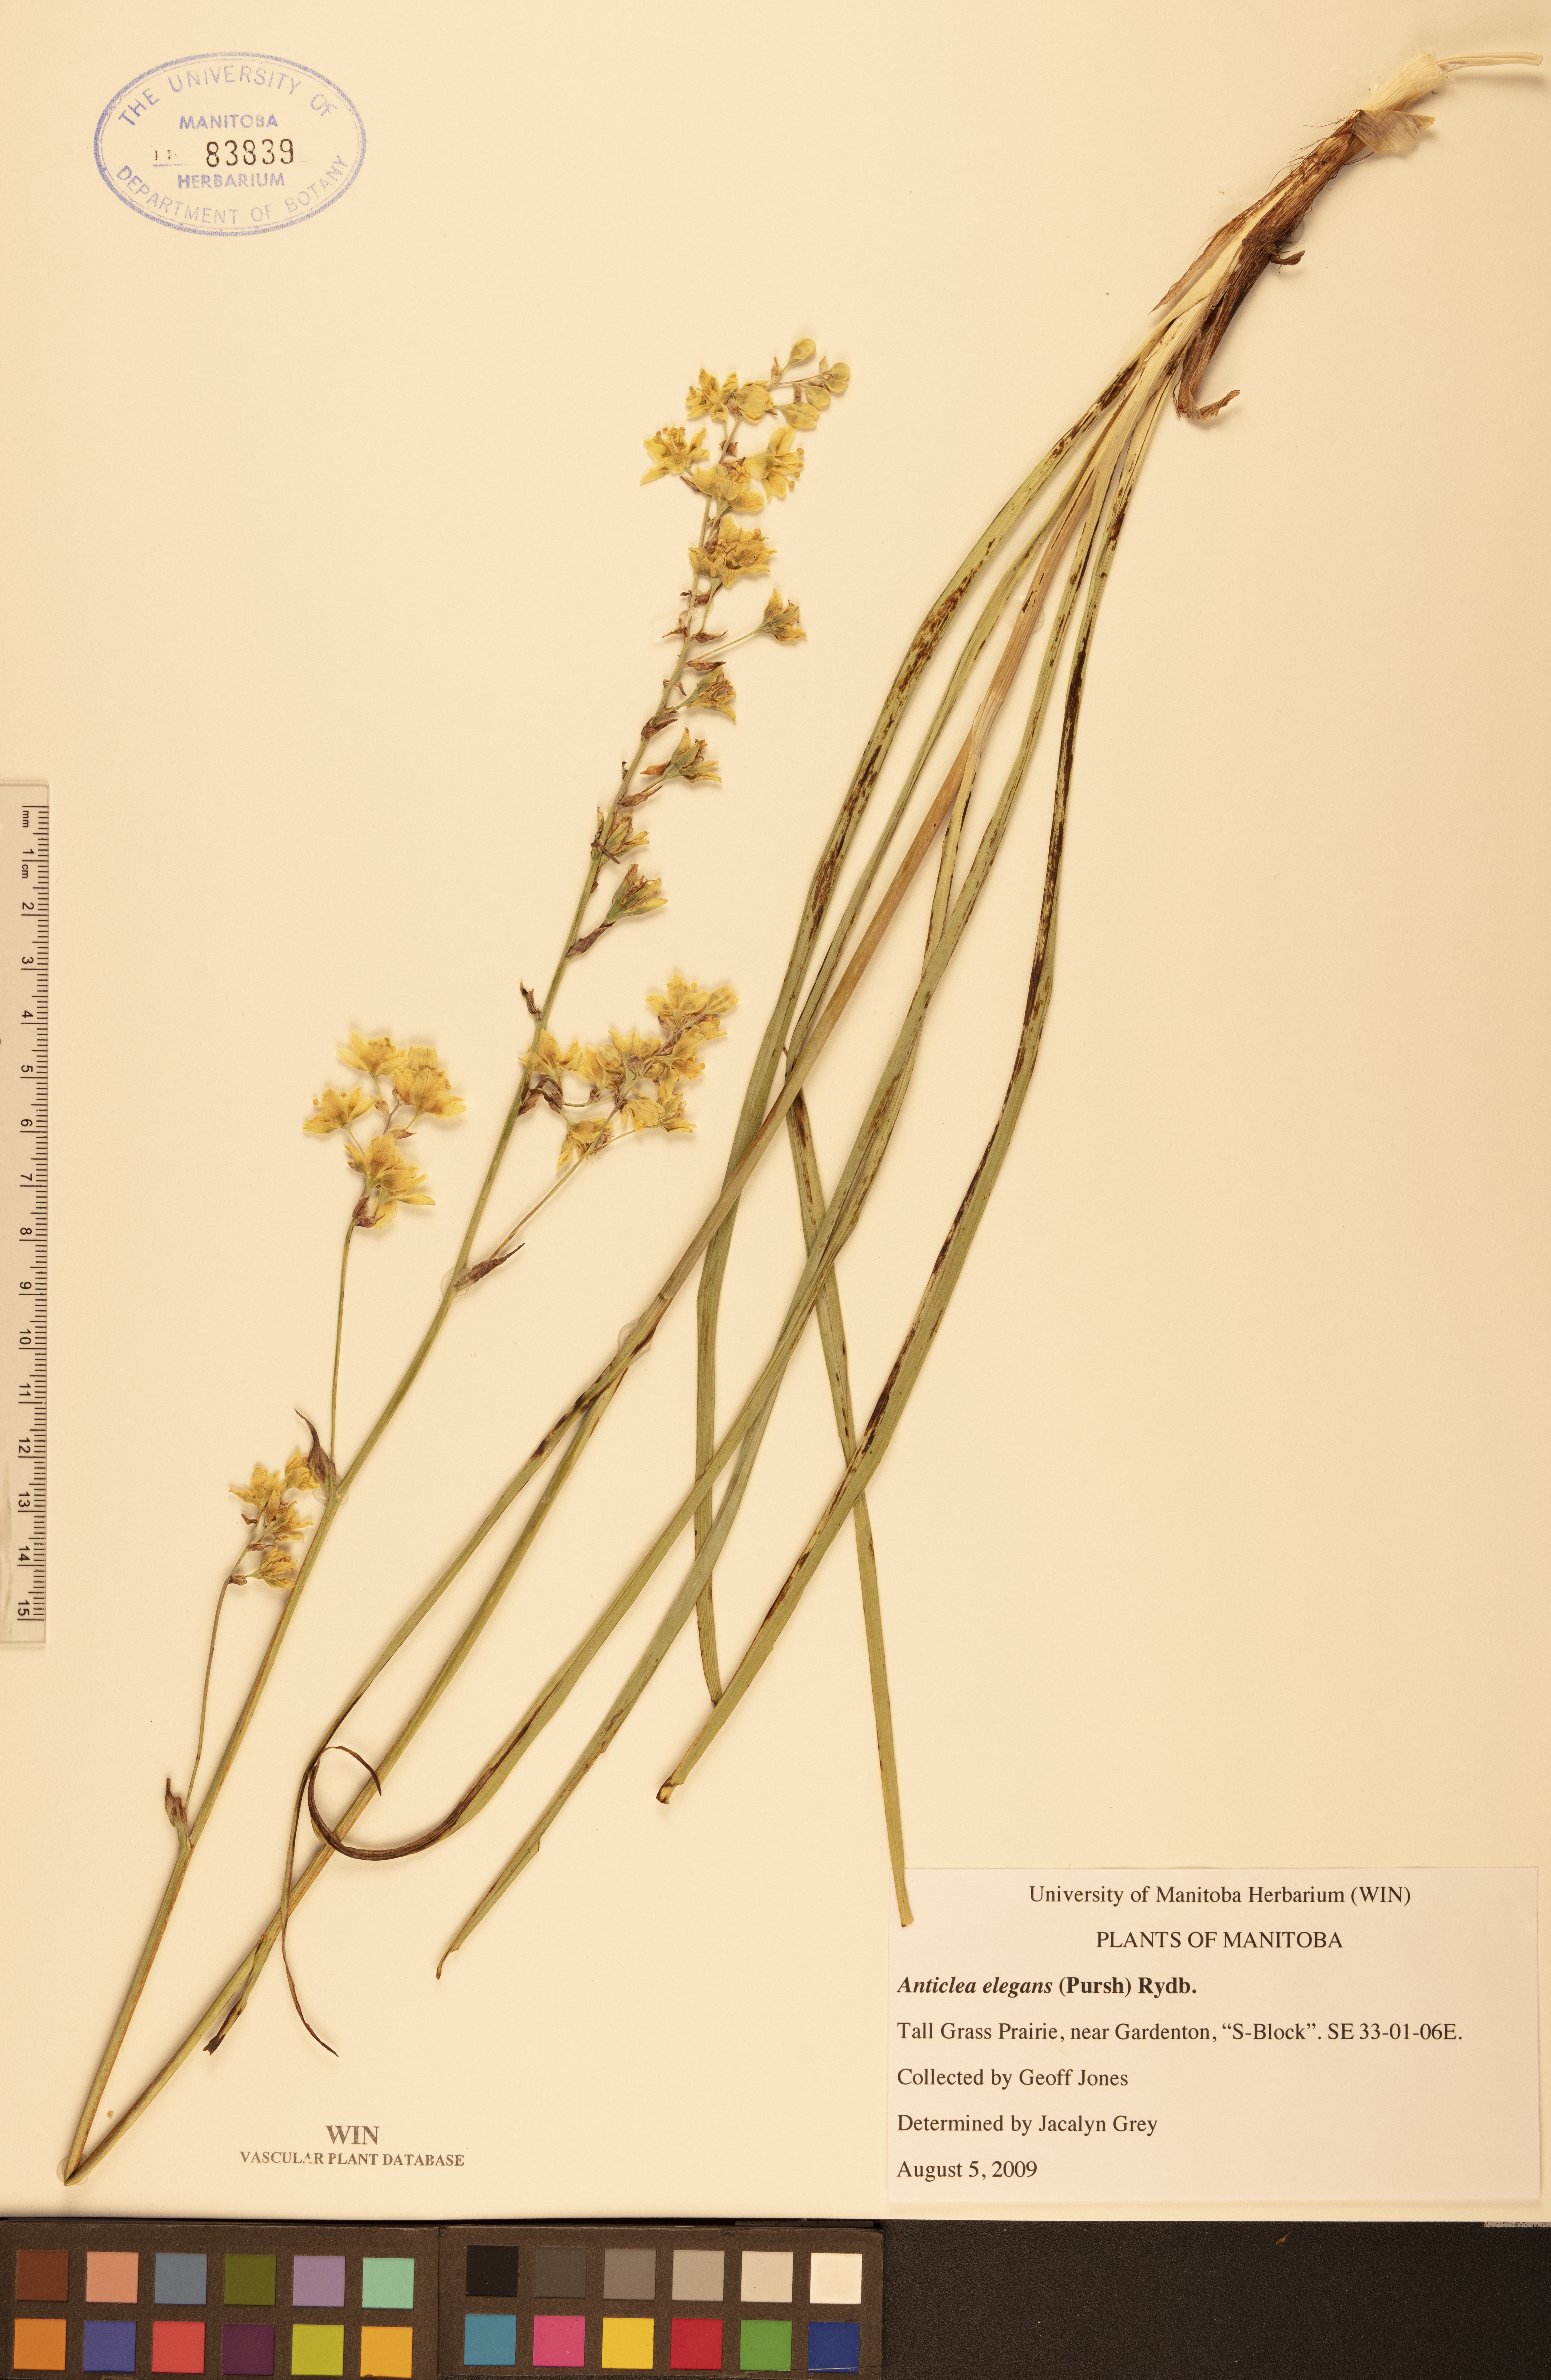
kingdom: Plantae
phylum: Tracheophyta
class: Liliopsida
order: Liliales
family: Melanthiaceae
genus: Anticlea
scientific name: Anticlea elegans
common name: Mountain death camas
